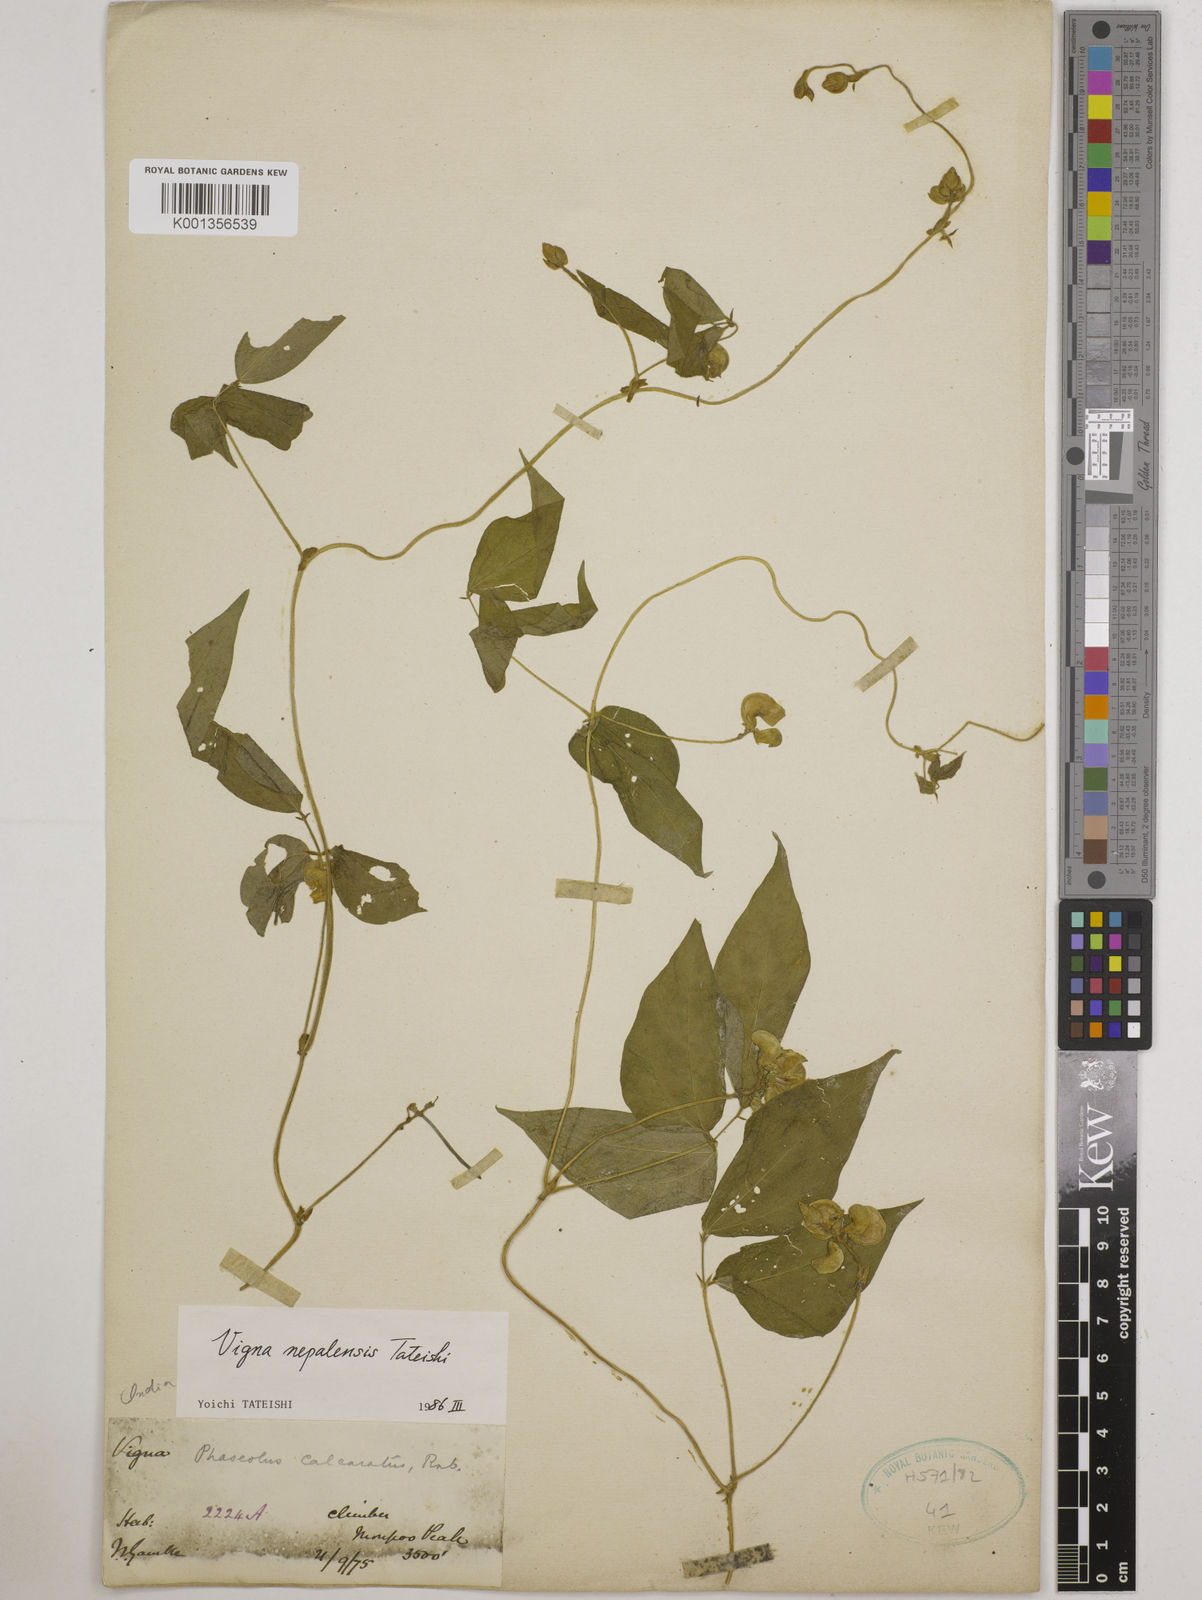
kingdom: Plantae
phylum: Tracheophyta
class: Magnoliopsida
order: Fabales
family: Fabaceae
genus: Vigna
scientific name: Vigna
